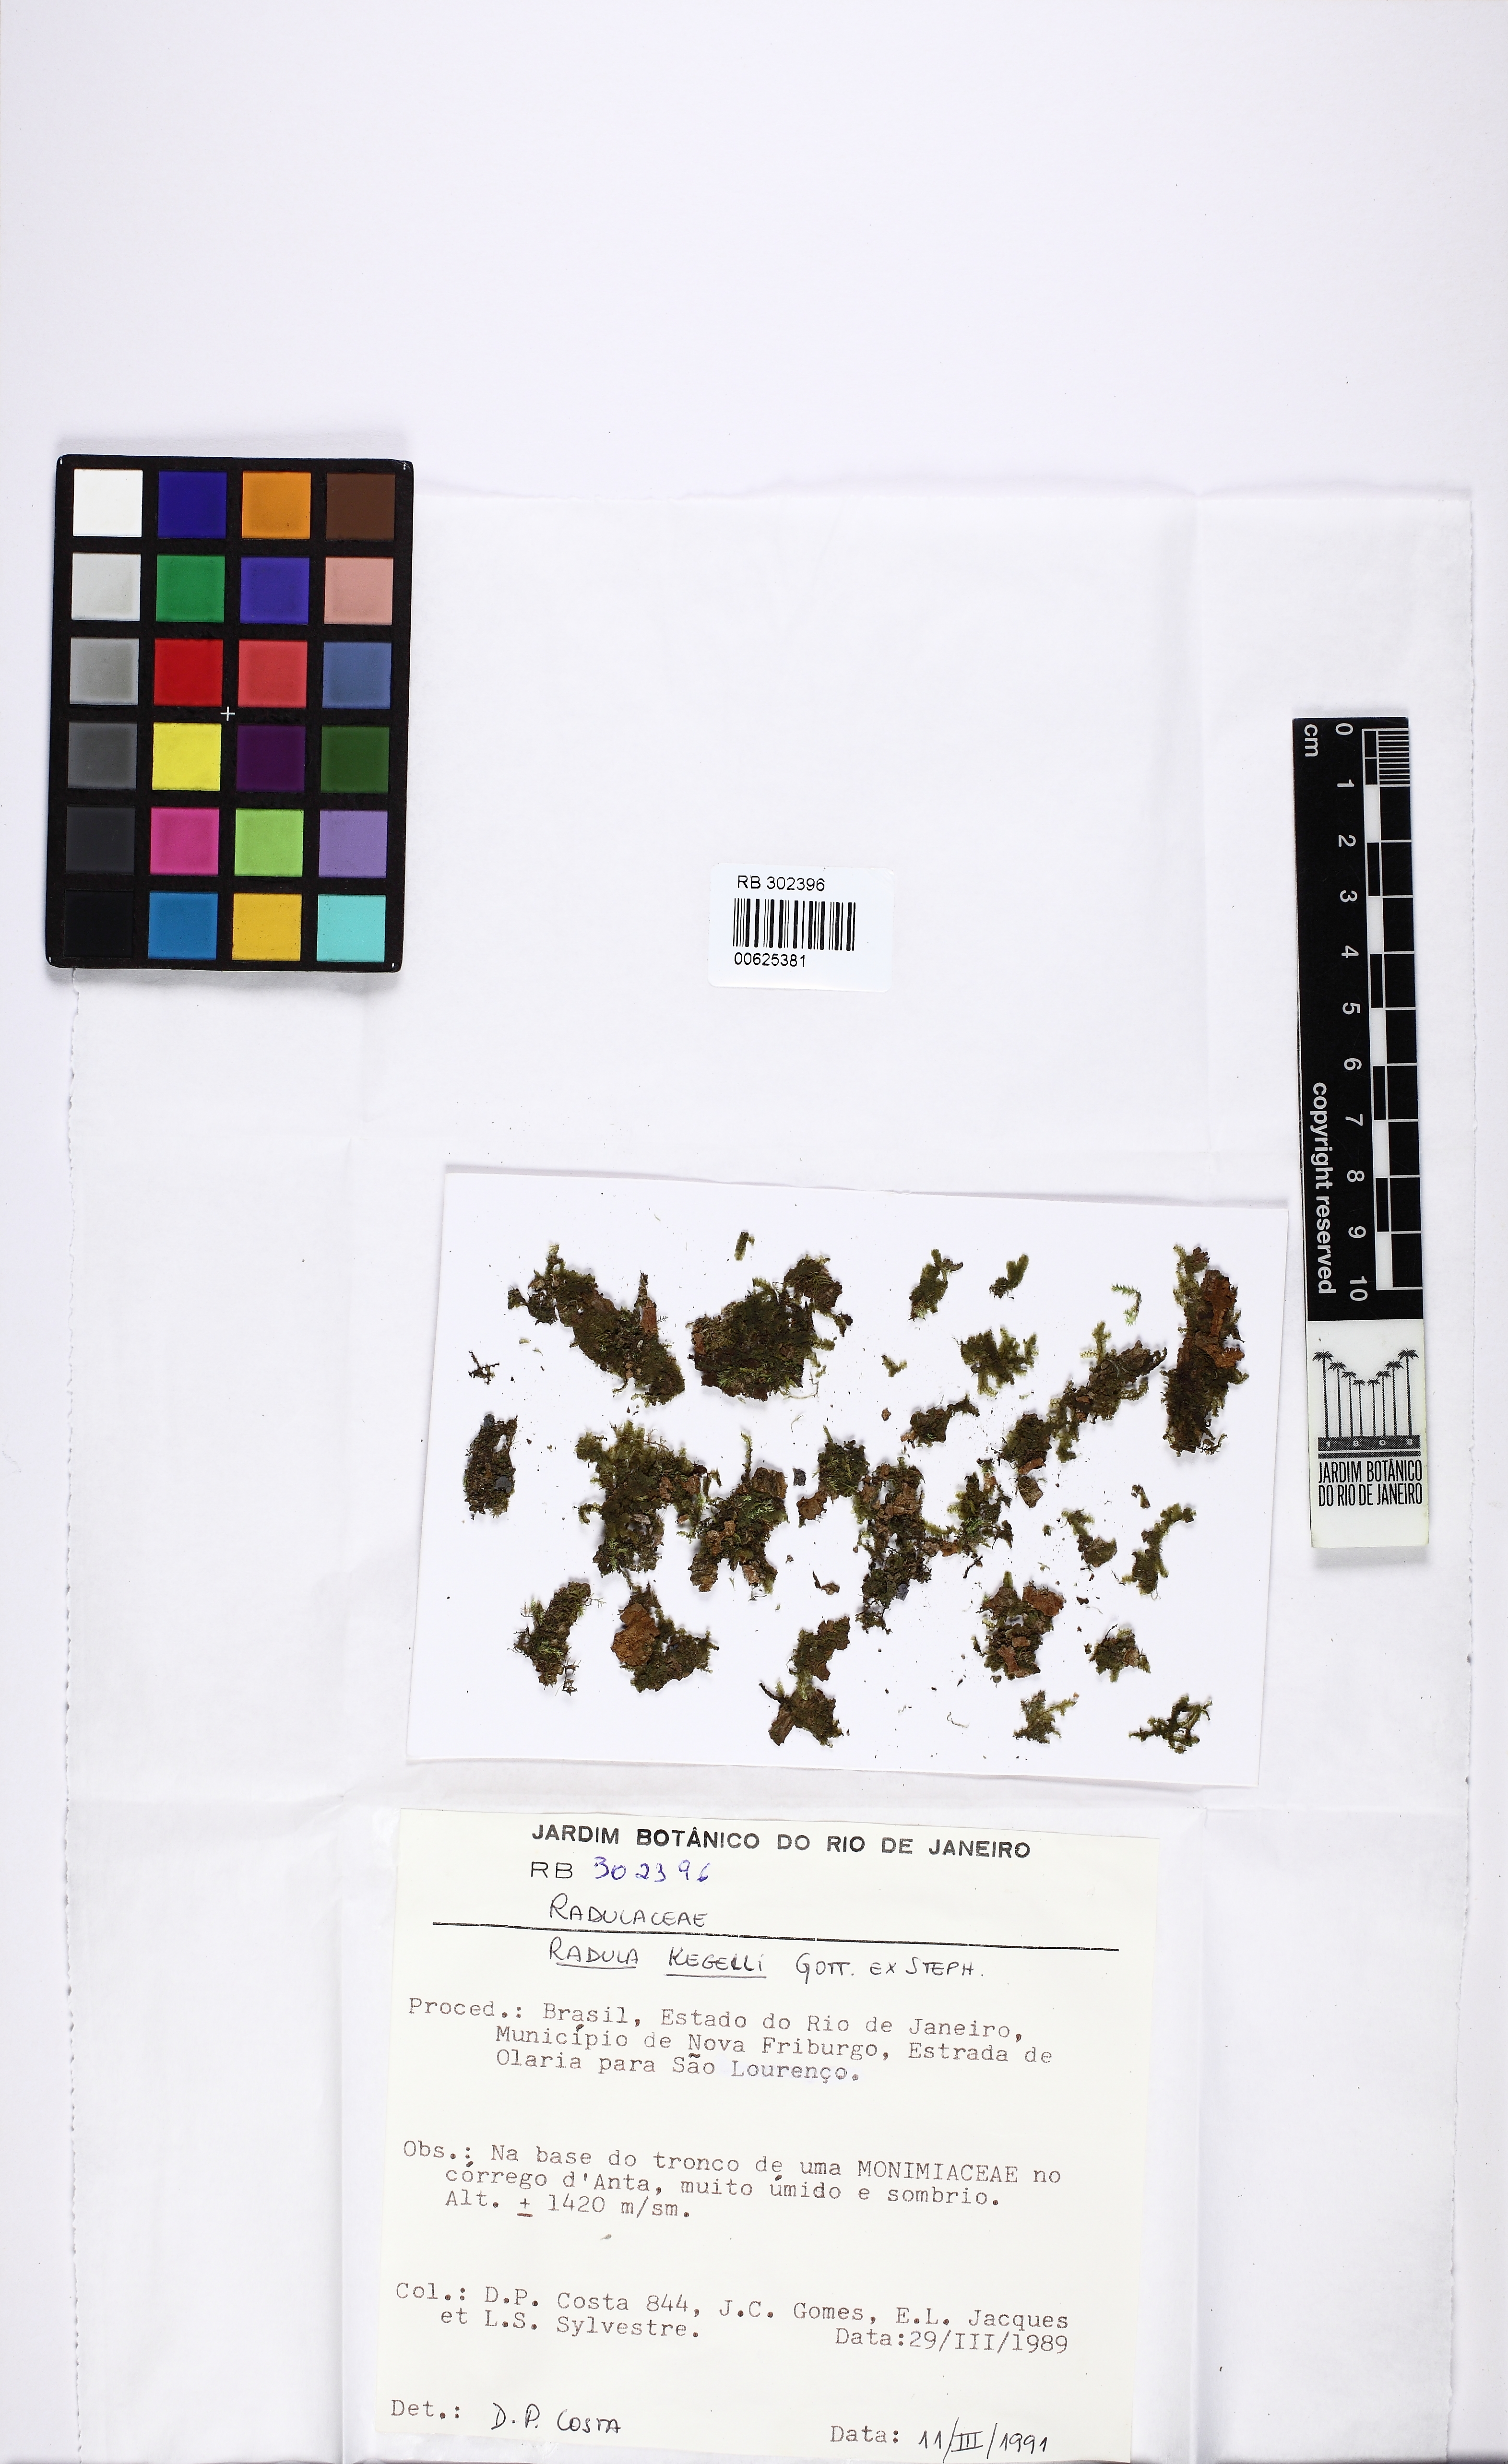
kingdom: Plantae
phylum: Marchantiophyta
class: Jungermanniopsida
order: Porellales
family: Radulaceae
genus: Radula
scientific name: Radula pallens
